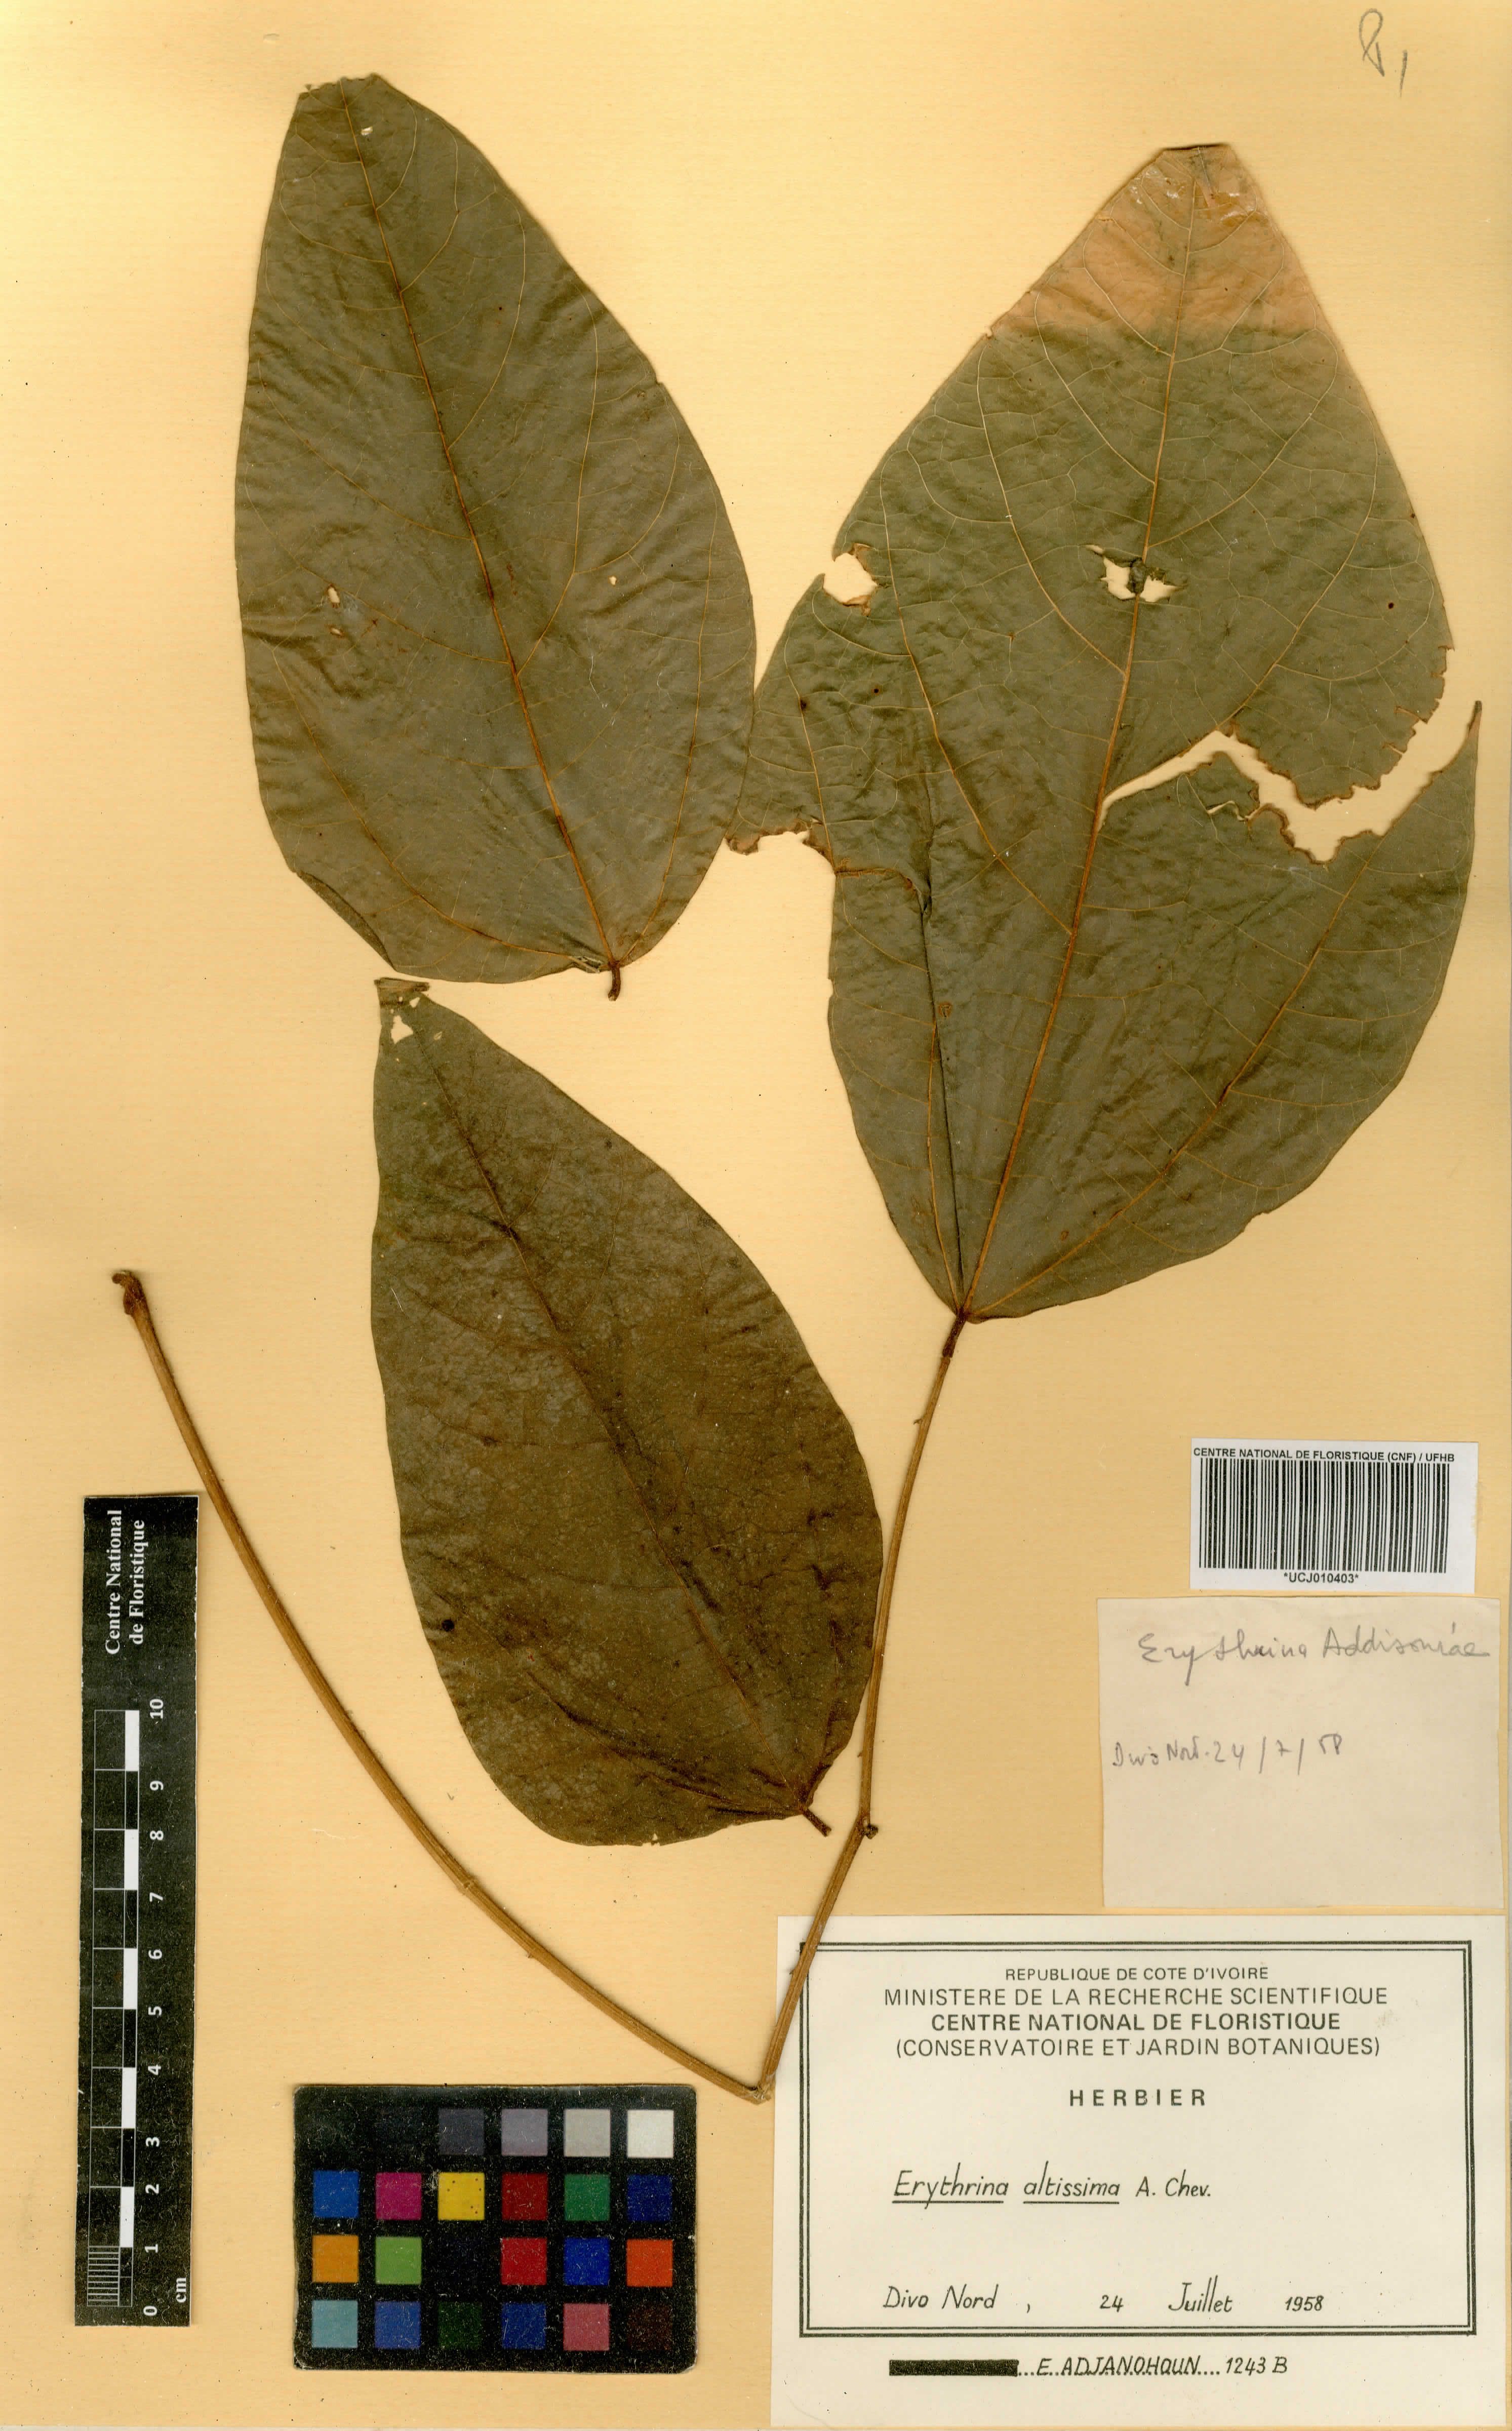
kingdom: Plantae
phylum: Tracheophyta
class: Magnoliopsida
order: Fabales
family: Fabaceae
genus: Erythrina
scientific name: Erythrina mildbraedii
